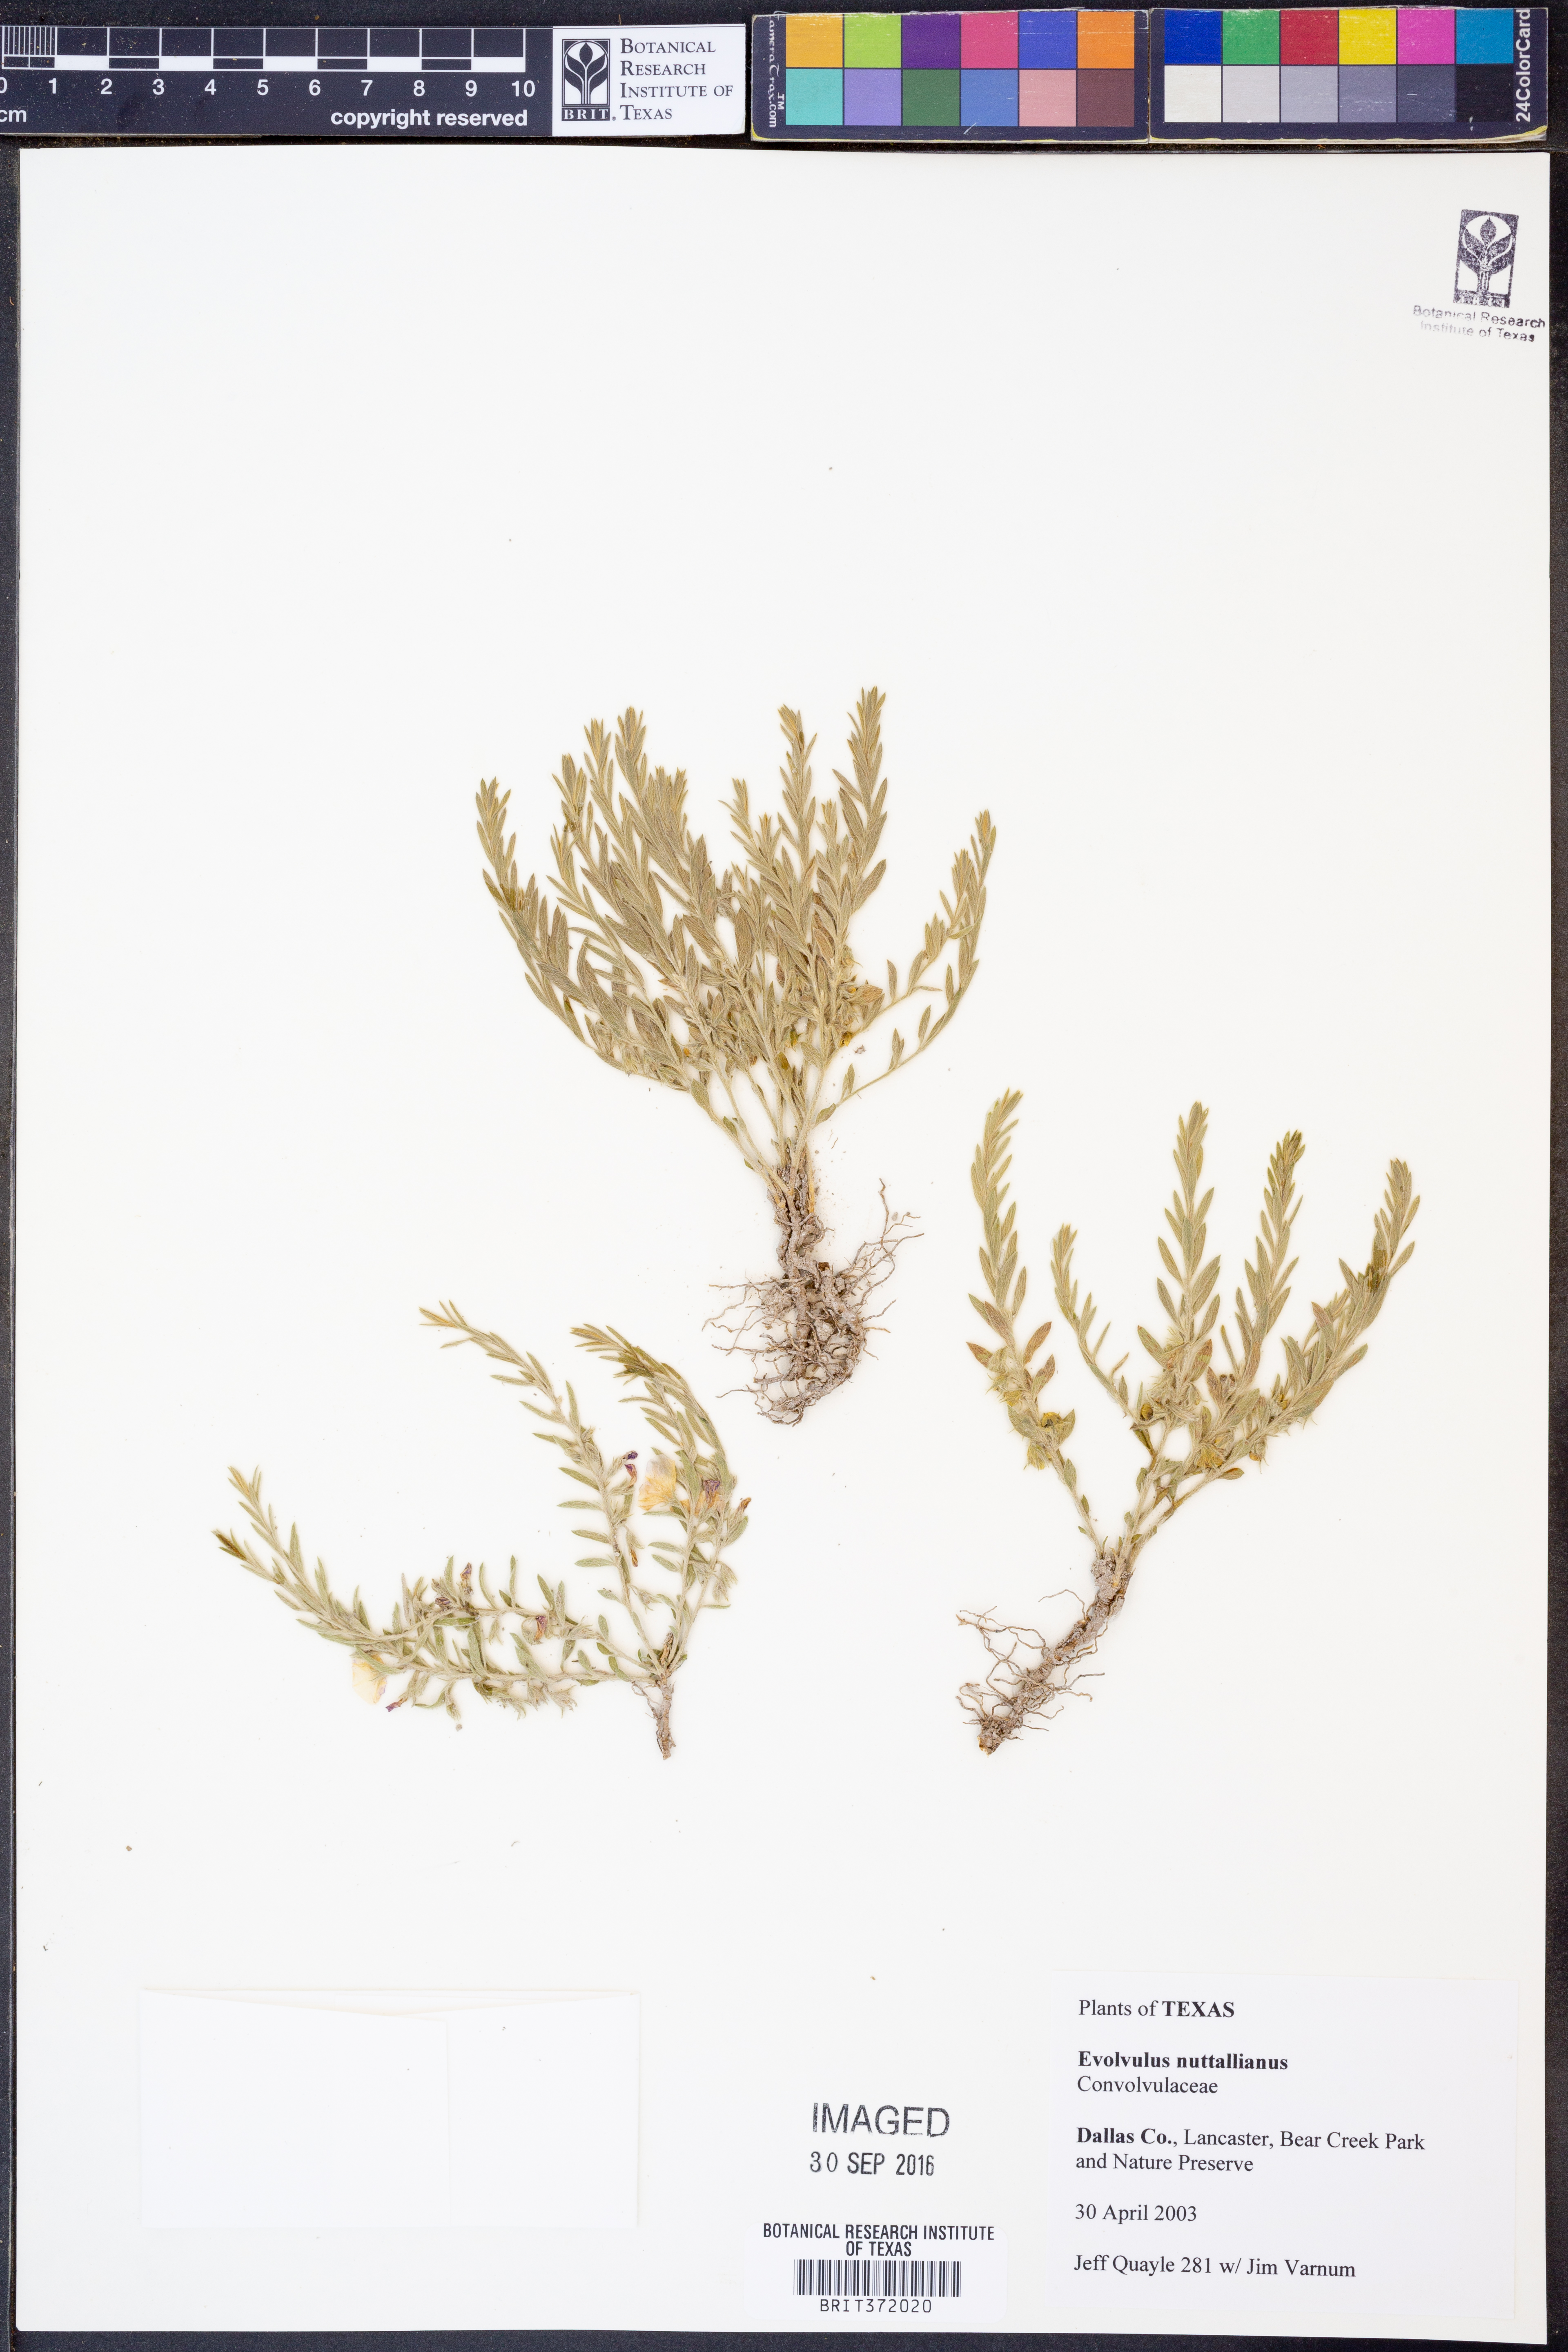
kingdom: Plantae
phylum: Tracheophyta
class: Magnoliopsida
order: Solanales
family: Convolvulaceae
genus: Evolvulus
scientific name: Evolvulus nuttallianus
